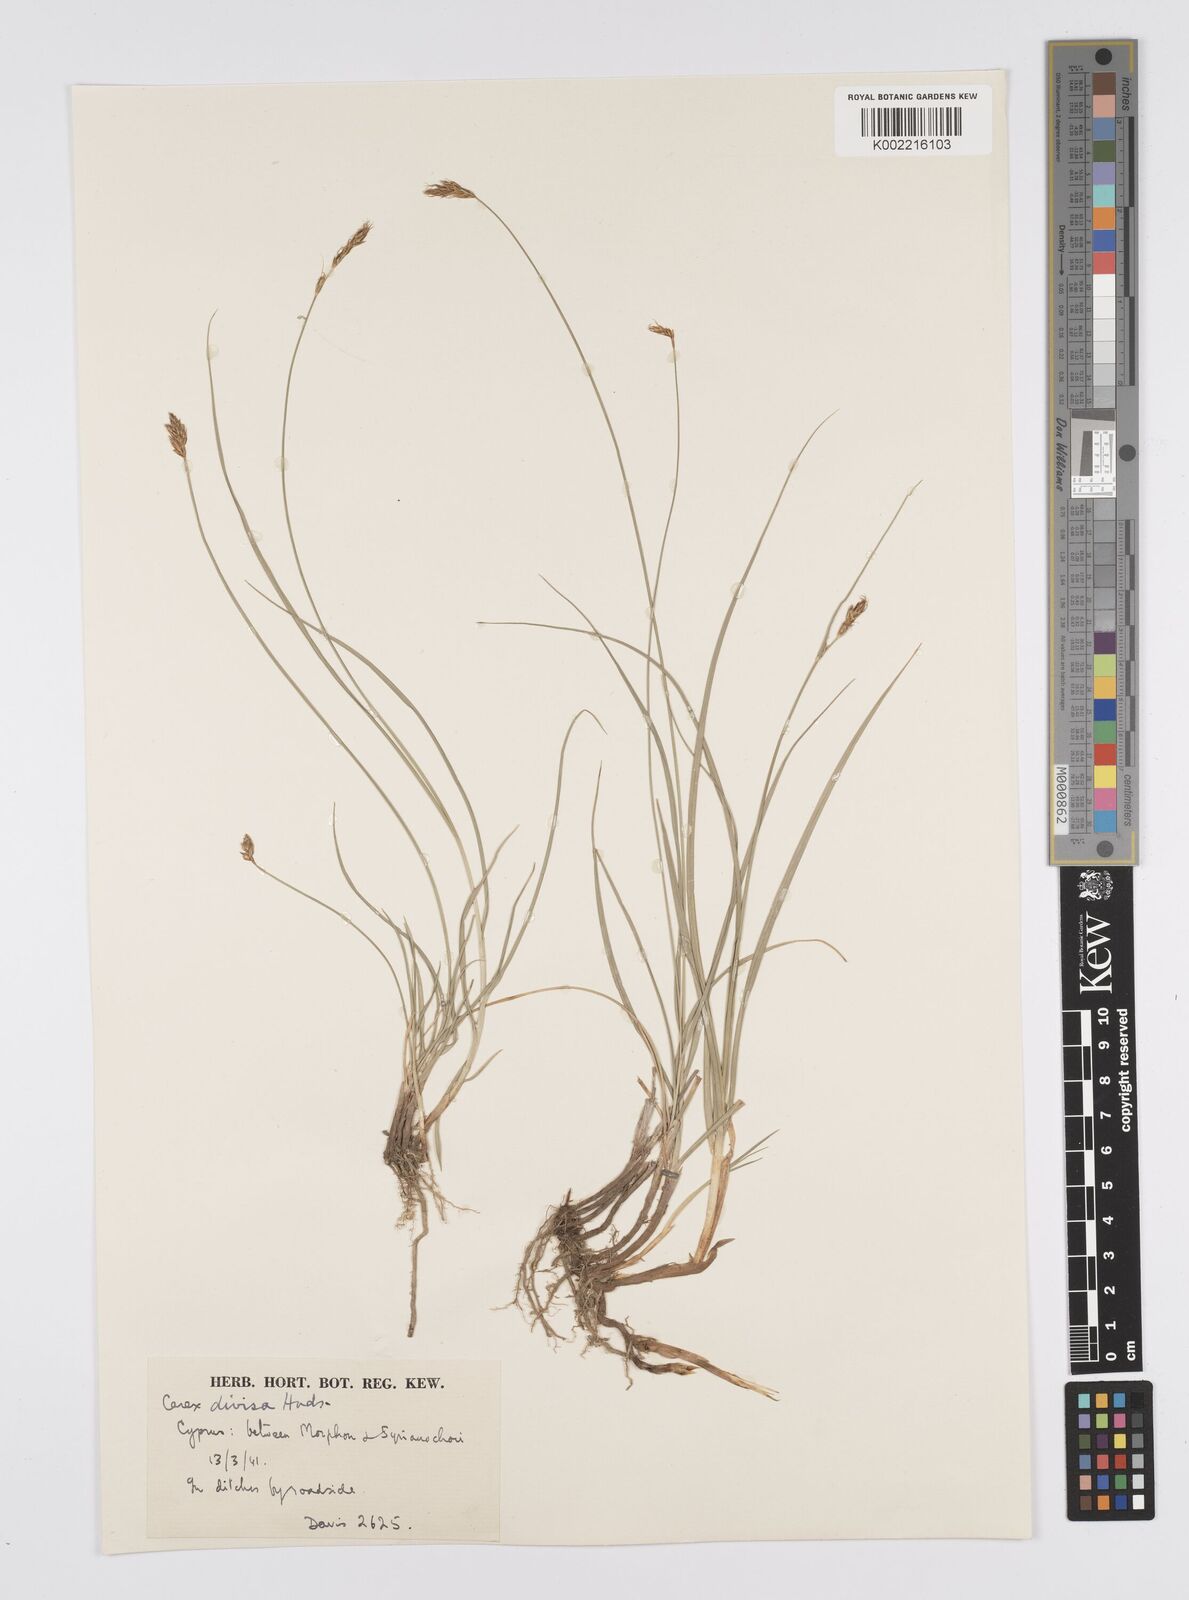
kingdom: Plantae
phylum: Tracheophyta
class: Liliopsida
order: Poales
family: Cyperaceae
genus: Carex
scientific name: Carex divisa
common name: Divided sedge
